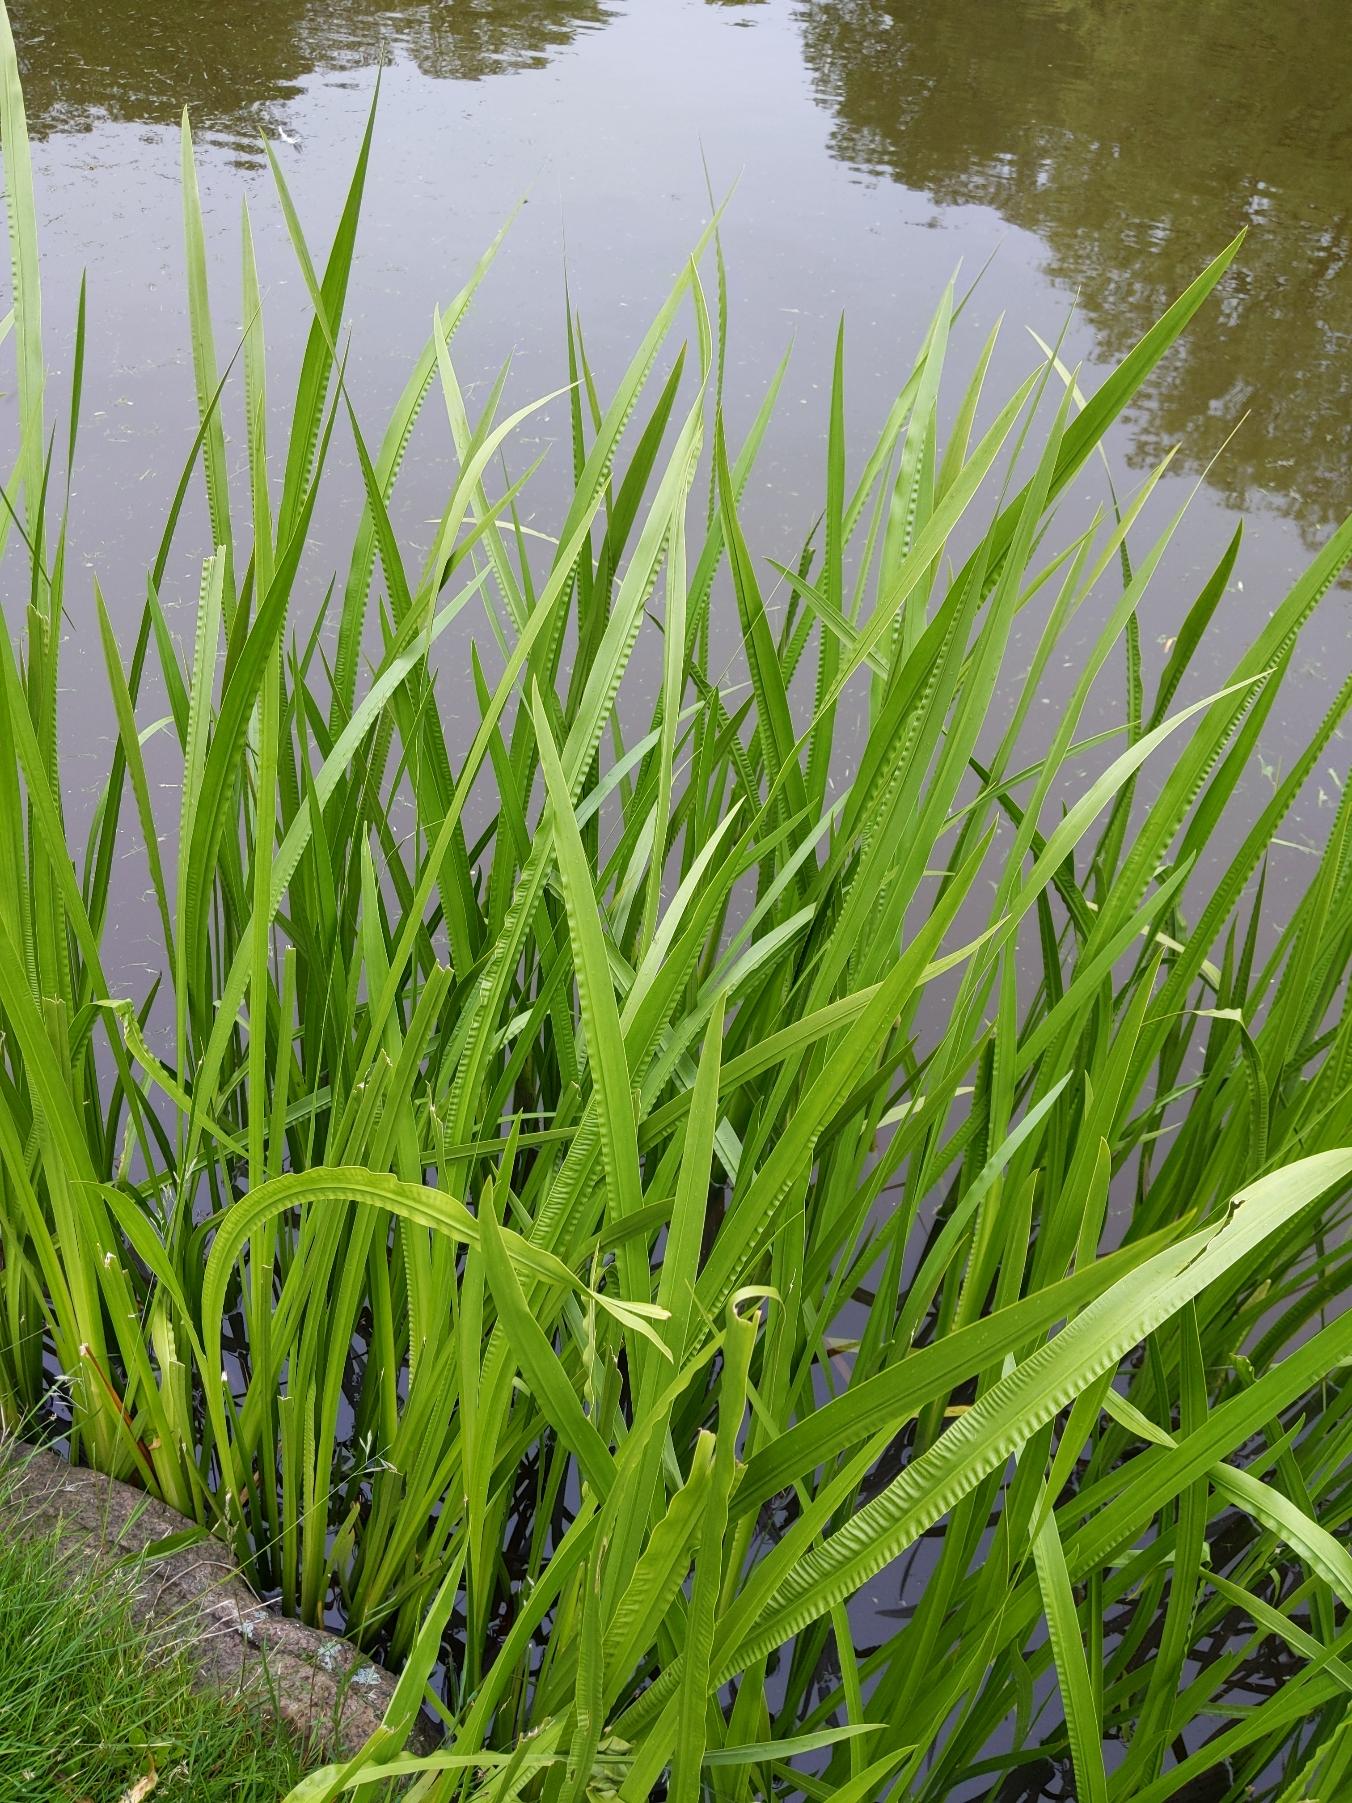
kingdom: Plantae
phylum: Tracheophyta
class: Liliopsida
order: Acorales
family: Acoraceae
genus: Acorus
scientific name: Acorus calamus
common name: Kalmus
